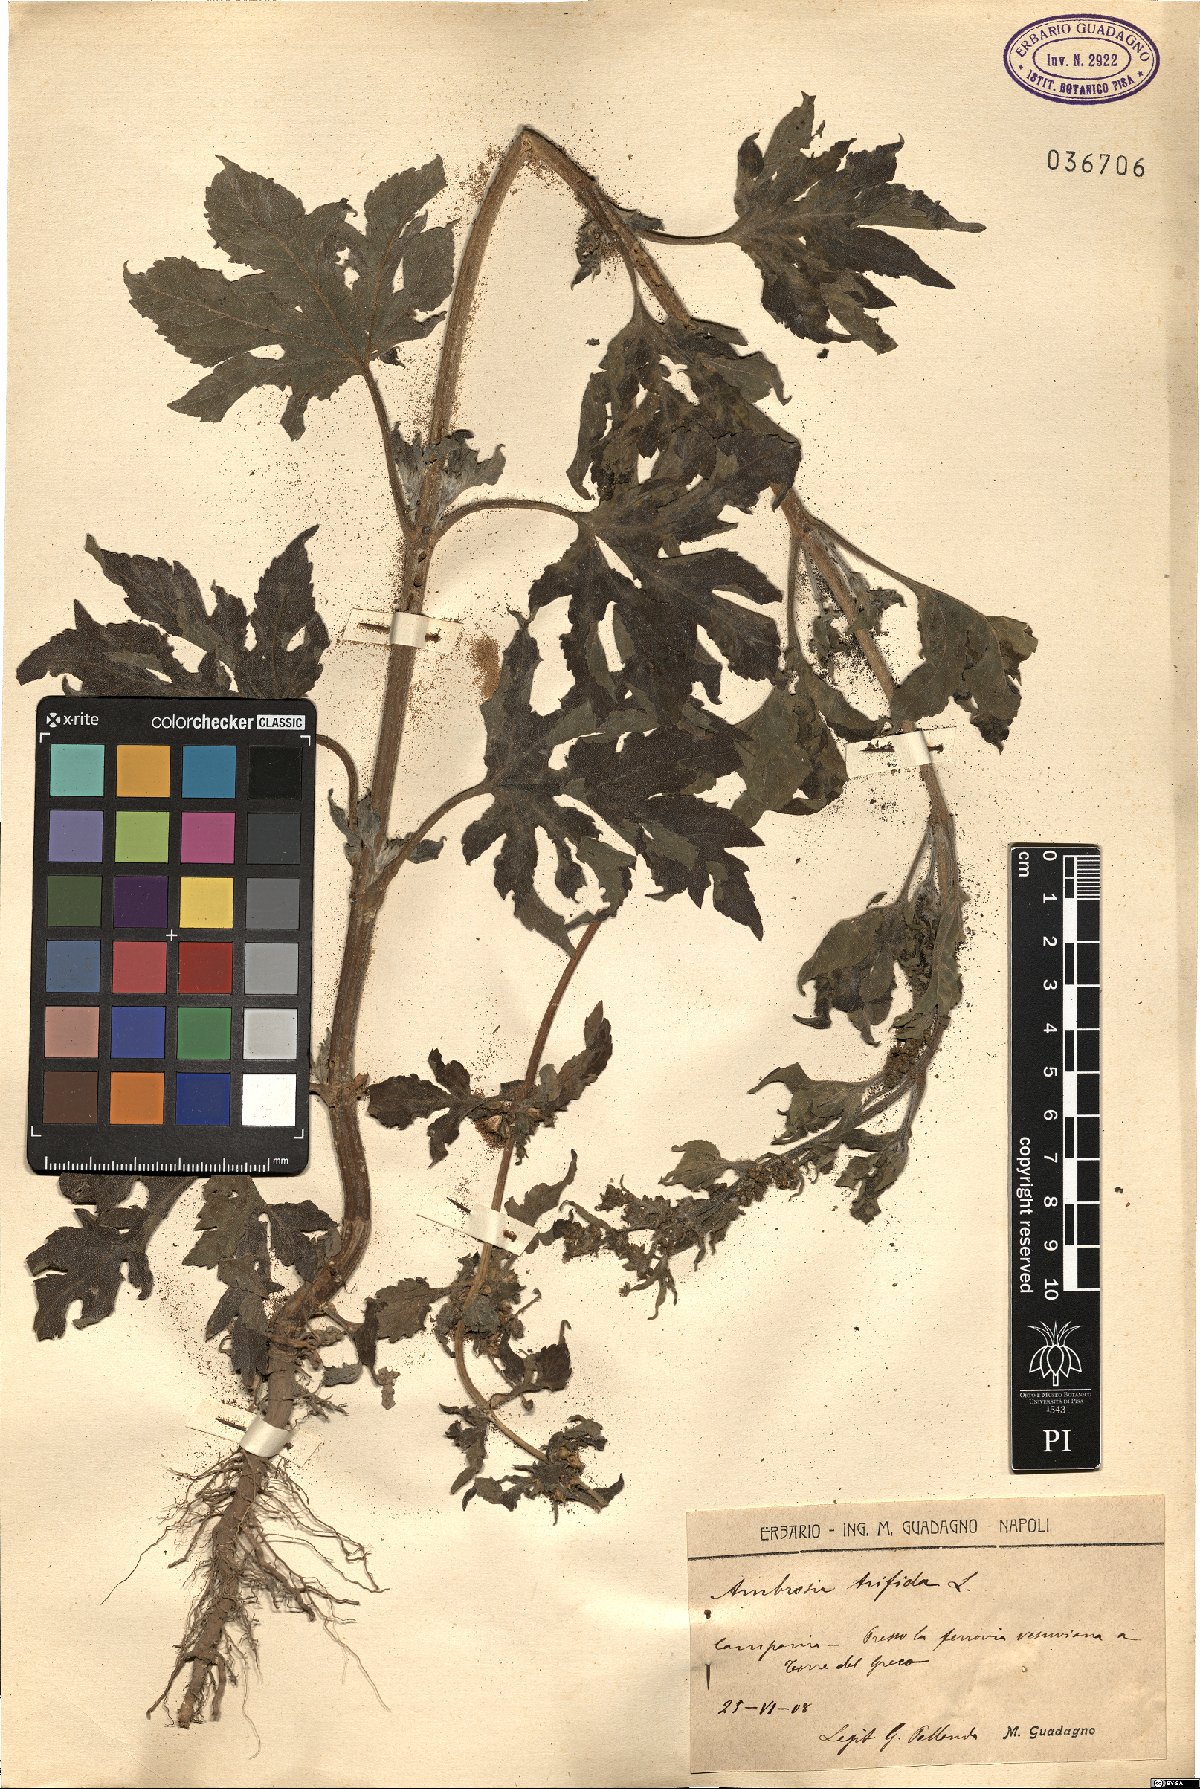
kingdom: Plantae
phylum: Tracheophyta
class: Magnoliopsida
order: Asterales
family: Asteraceae
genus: Ambrosia
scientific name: Ambrosia trifida
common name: Giant ragweed
